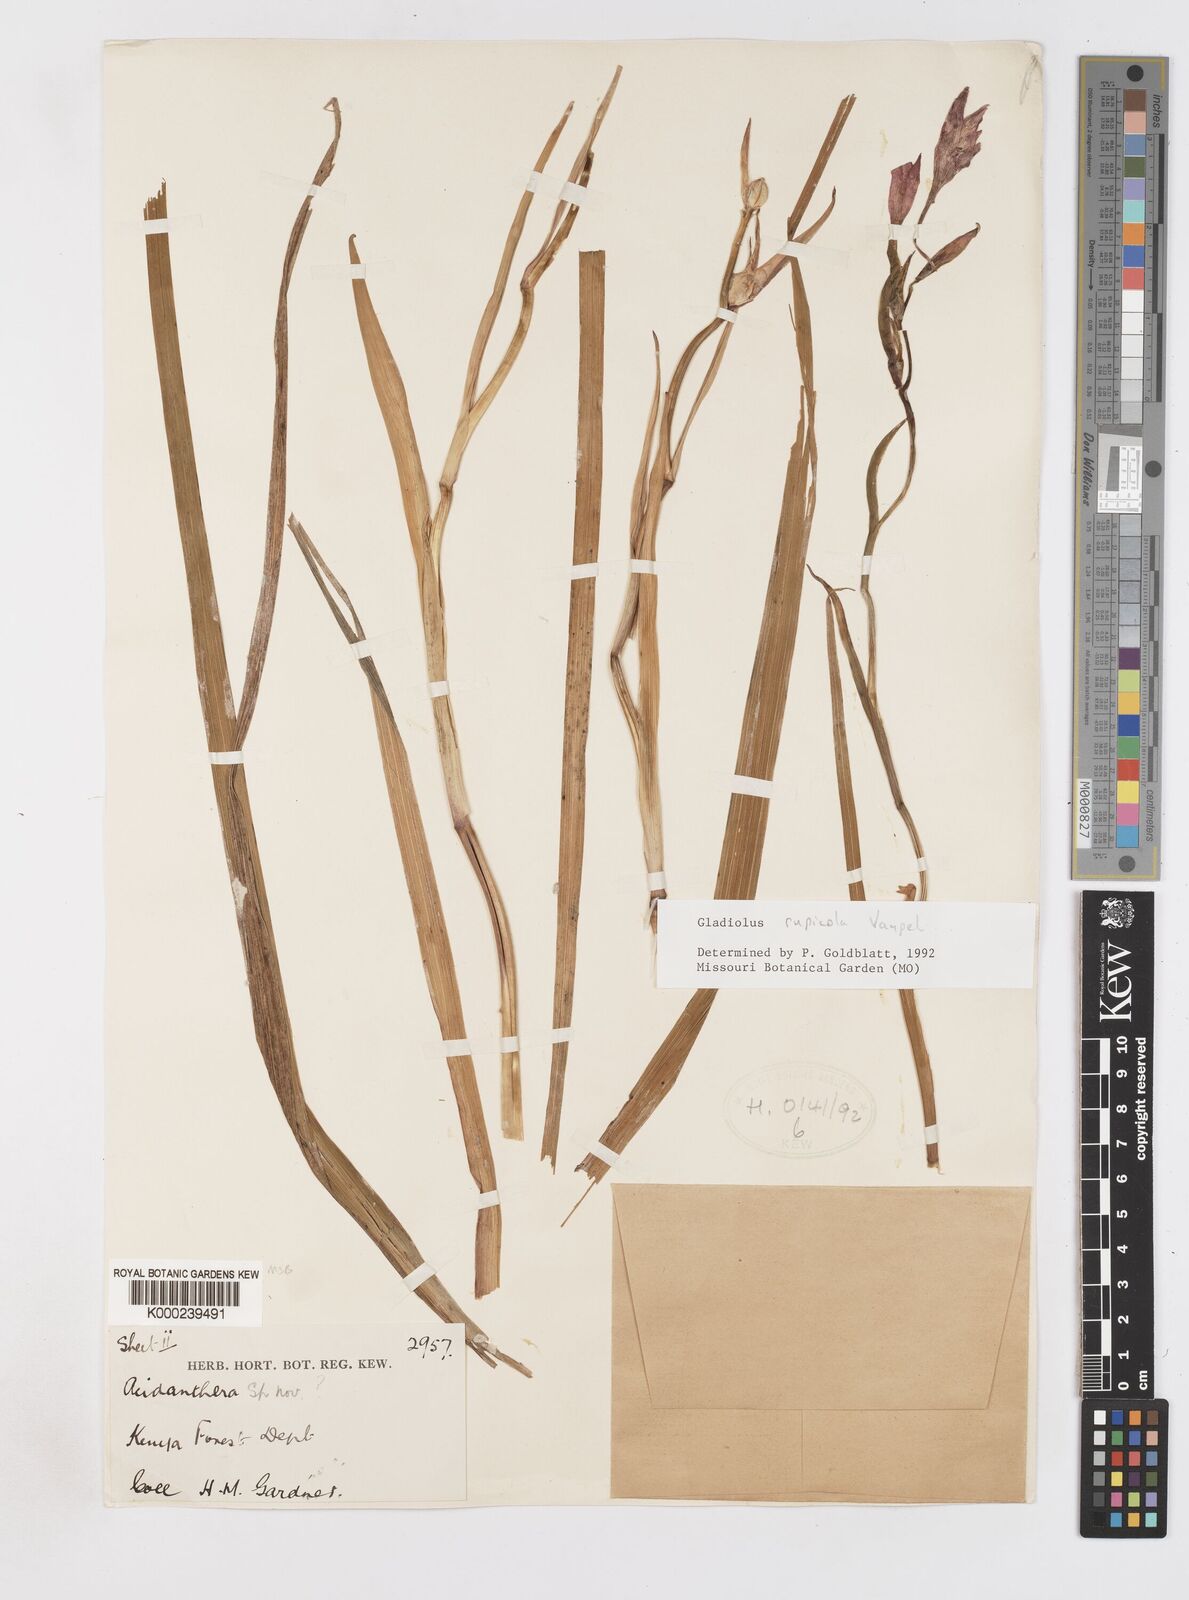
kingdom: Plantae
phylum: Tracheophyta
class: Liliopsida
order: Asparagales
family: Iridaceae
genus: Gladiolus
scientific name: Gladiolus rupicola
